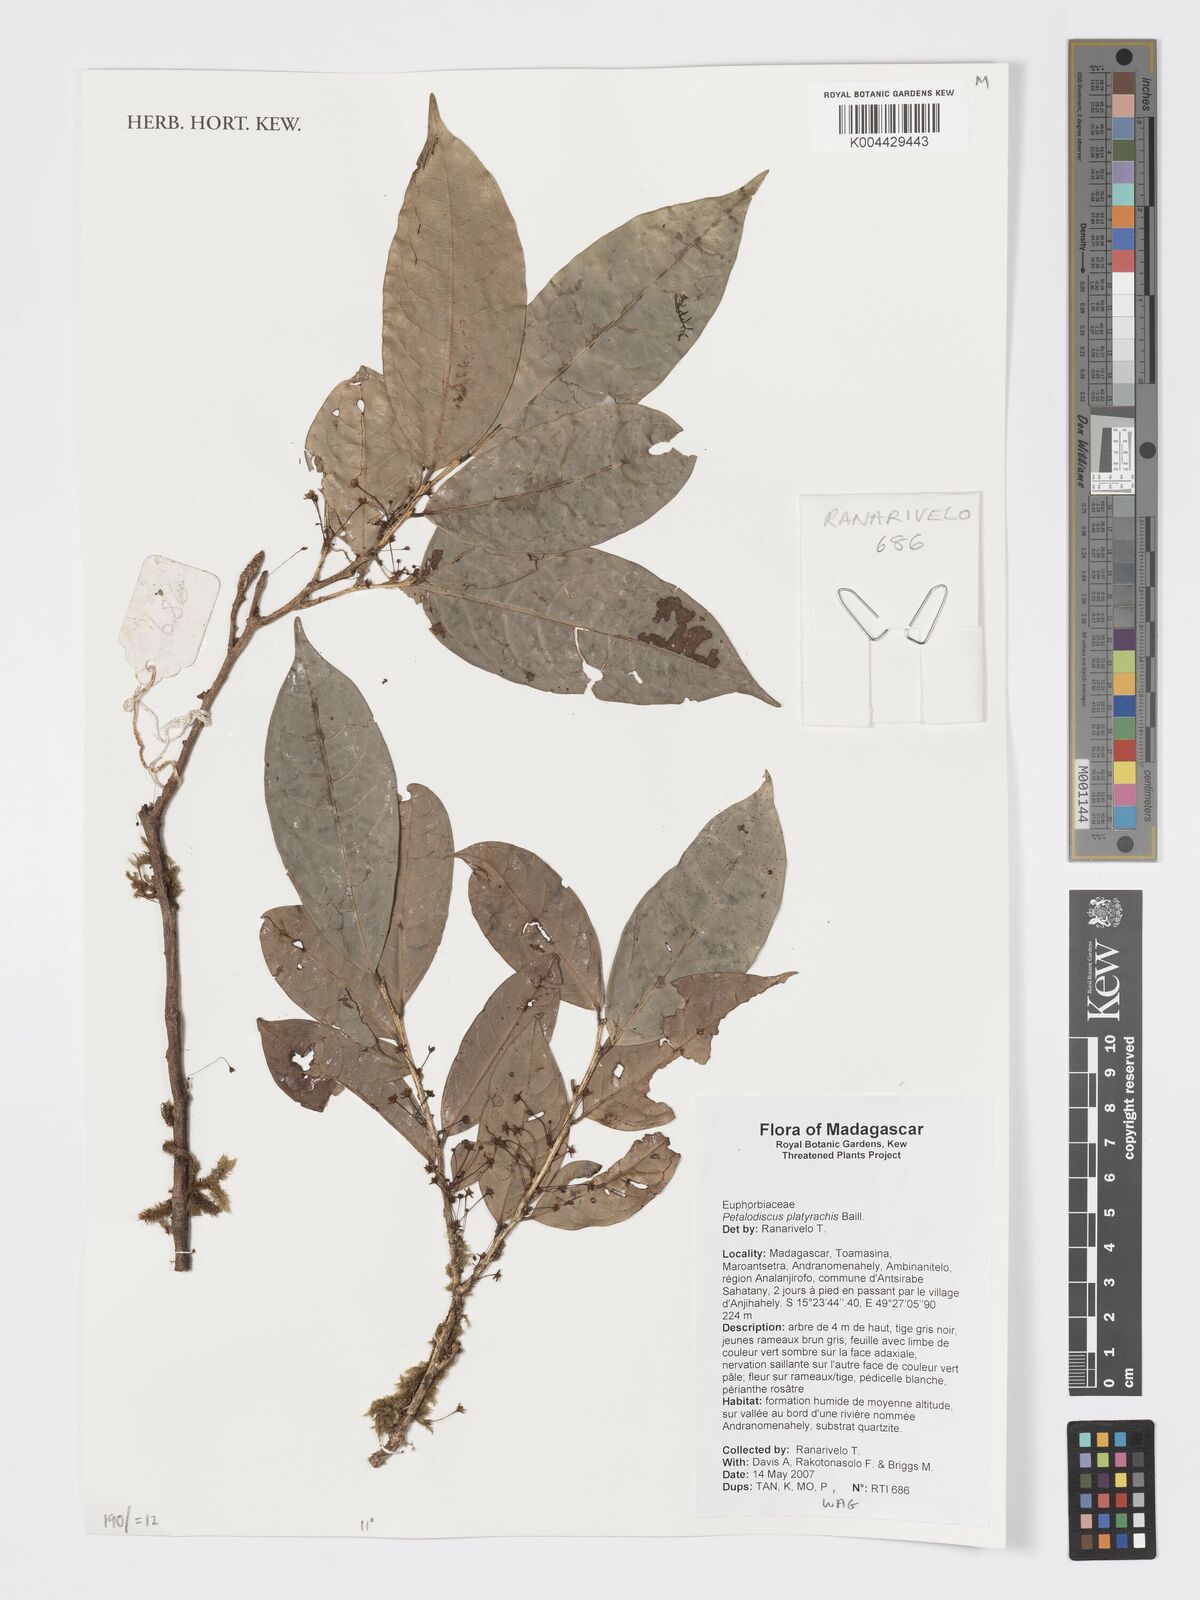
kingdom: Plantae
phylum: Tracheophyta
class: Magnoliopsida
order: Malpighiales
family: Phyllanthaceae
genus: Wielandia
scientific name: Wielandia platyrachis
